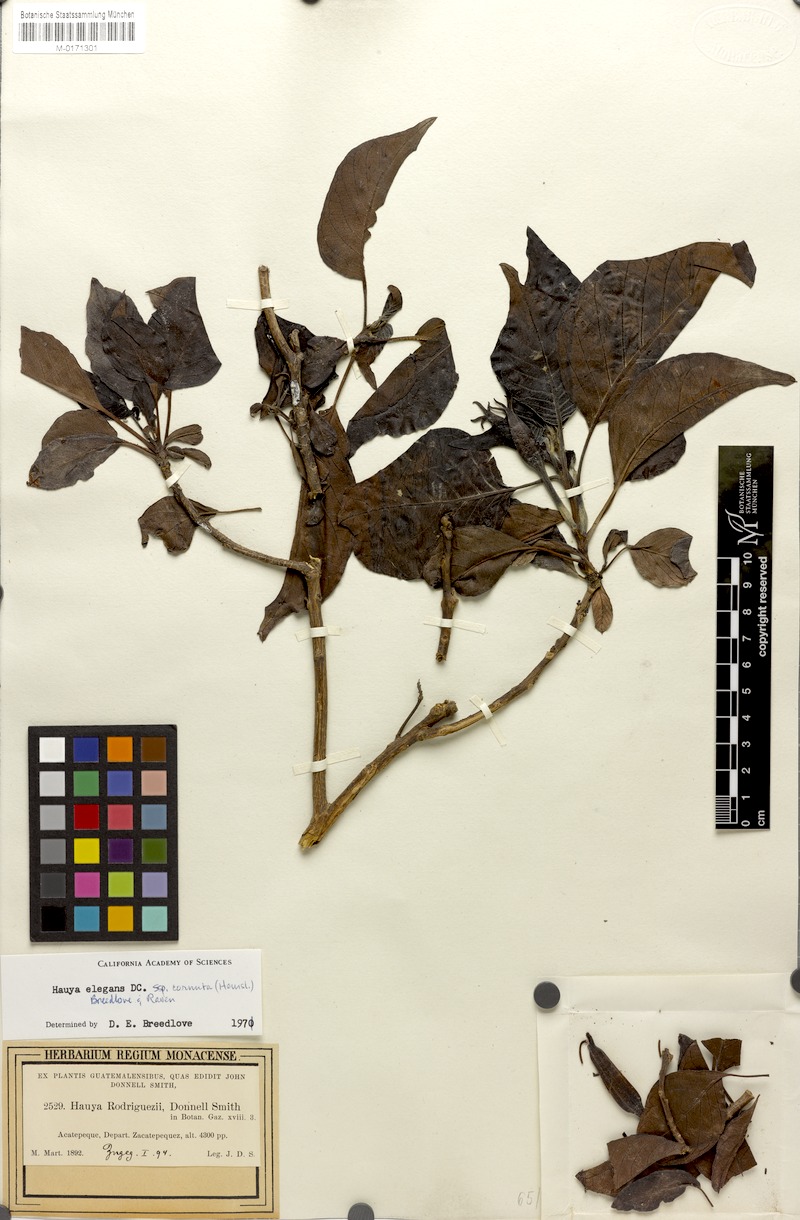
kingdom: Plantae
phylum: Tracheophyta
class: Magnoliopsida
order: Myrtales
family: Onagraceae
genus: Hauya
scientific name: Hauya elegans
